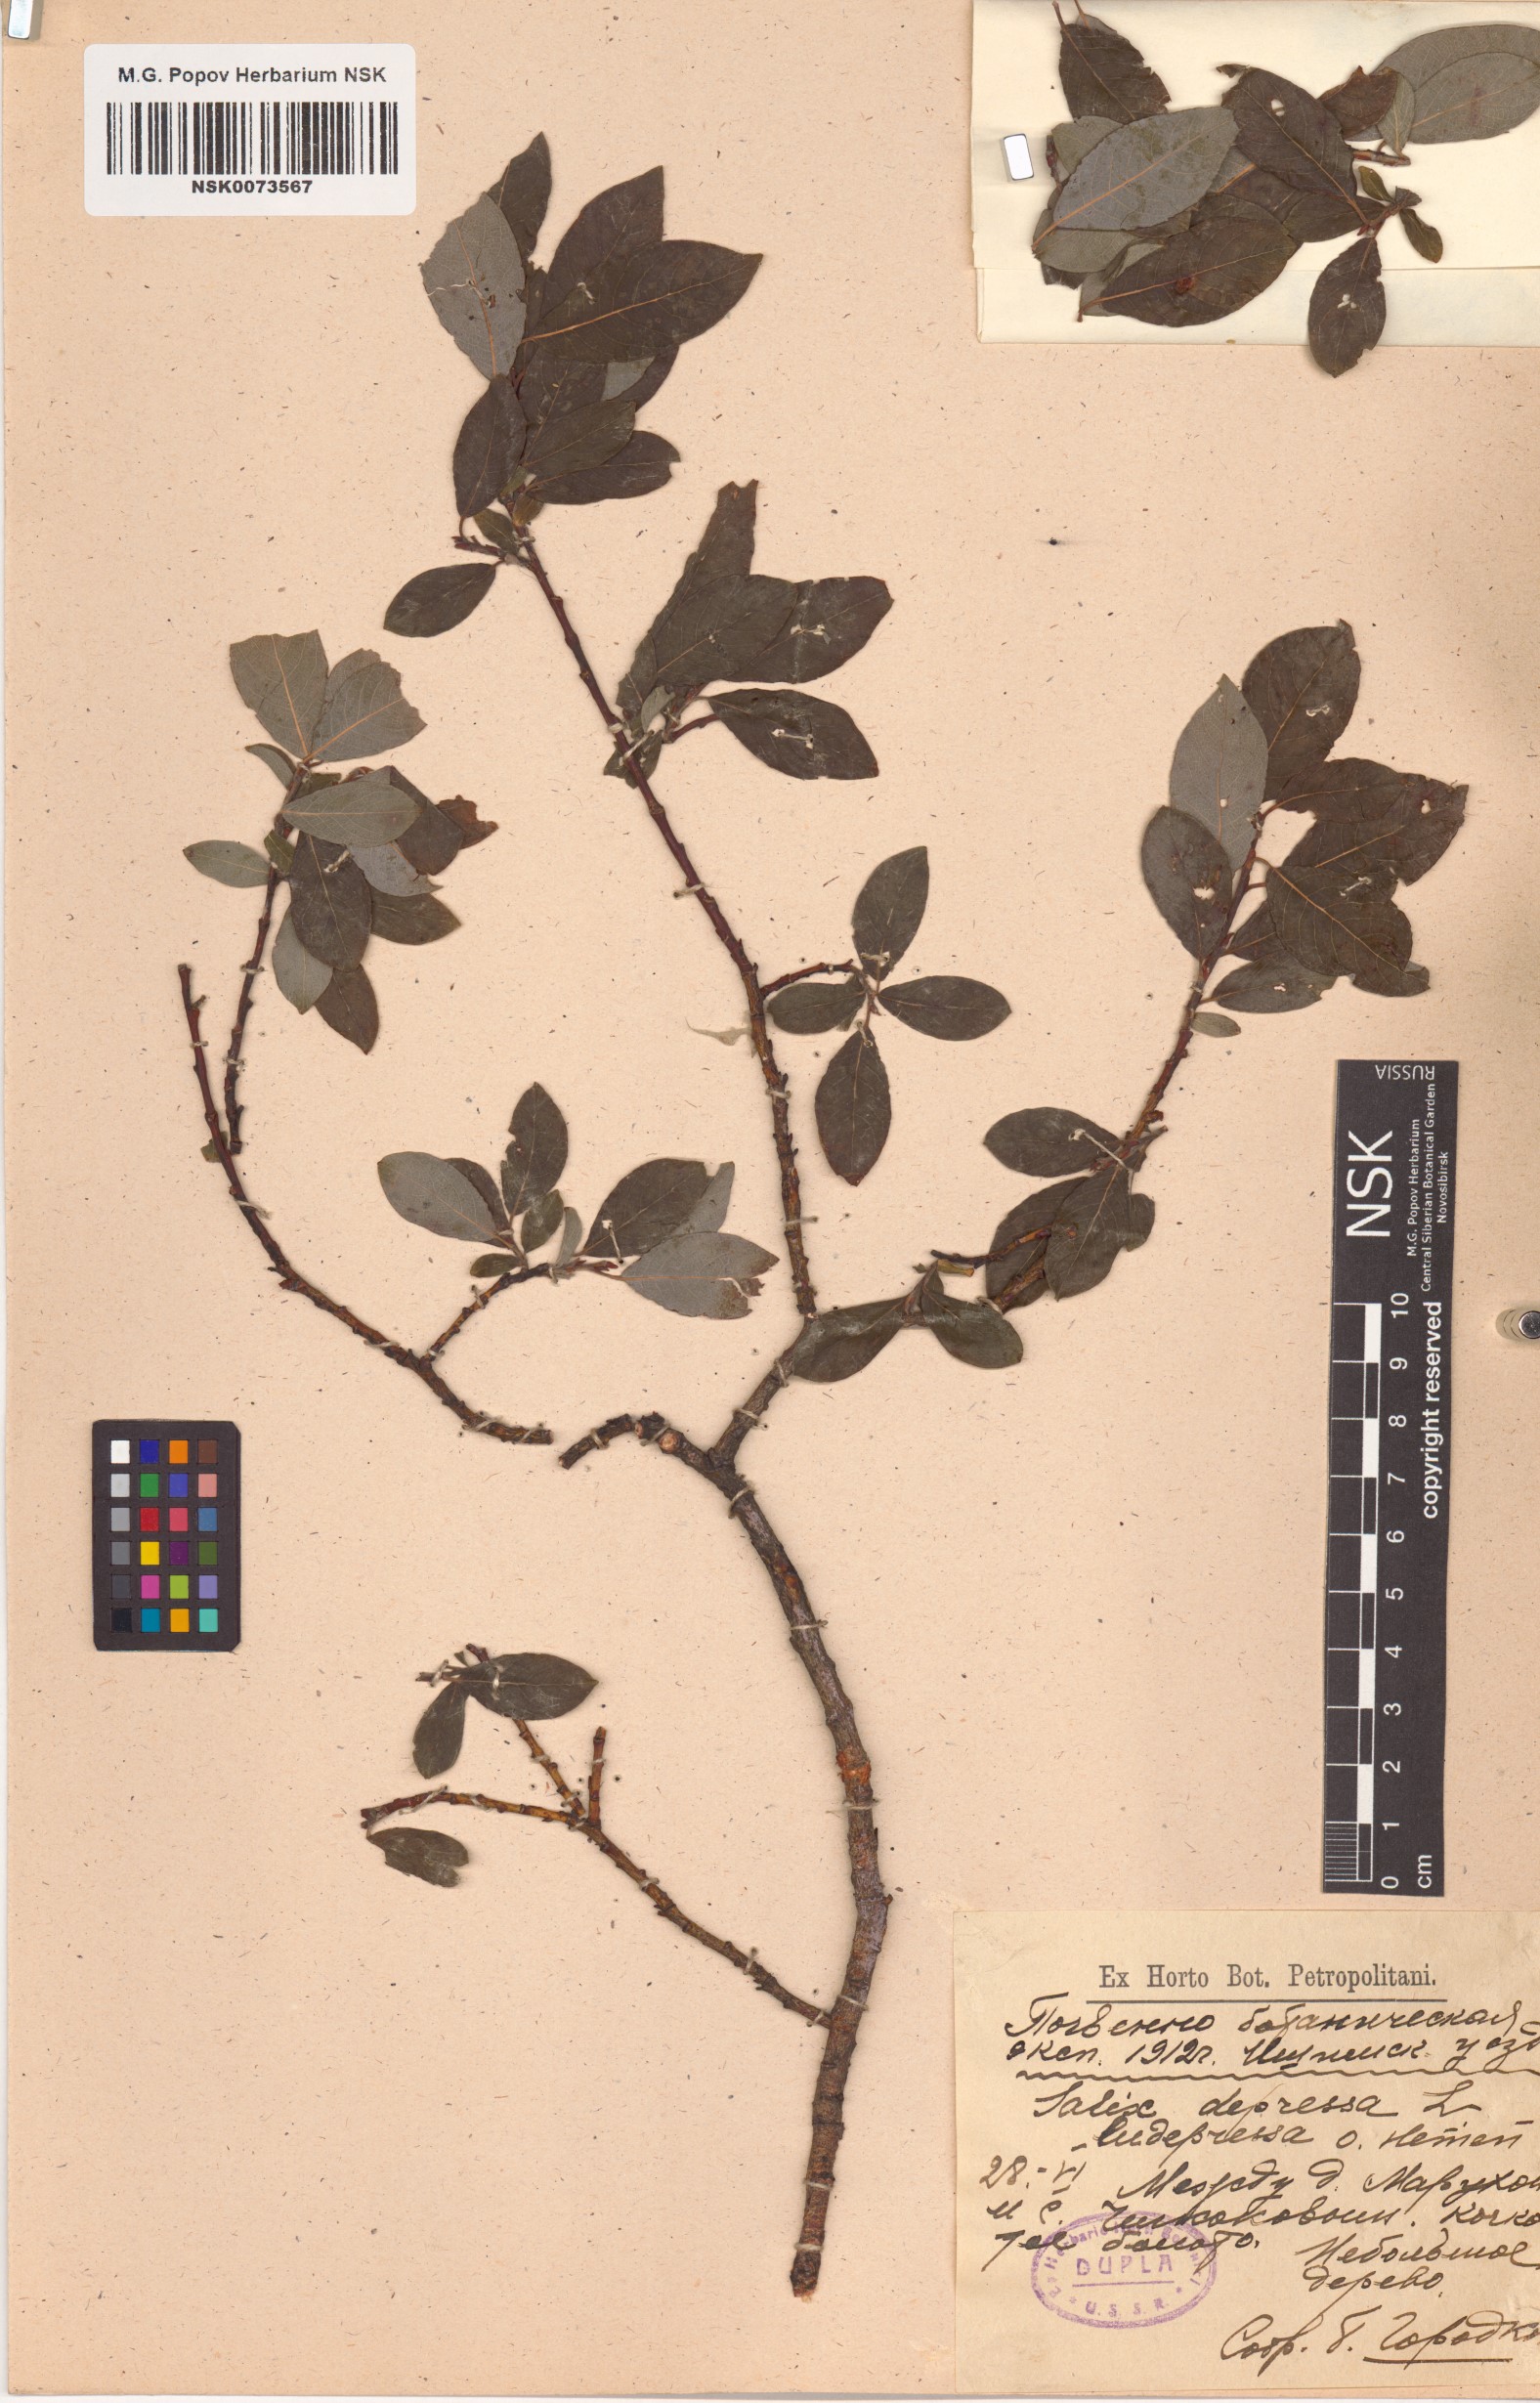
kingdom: Plantae
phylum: Tracheophyta
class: Magnoliopsida
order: Malpighiales
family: Salicaceae
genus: Salix
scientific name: Salix
